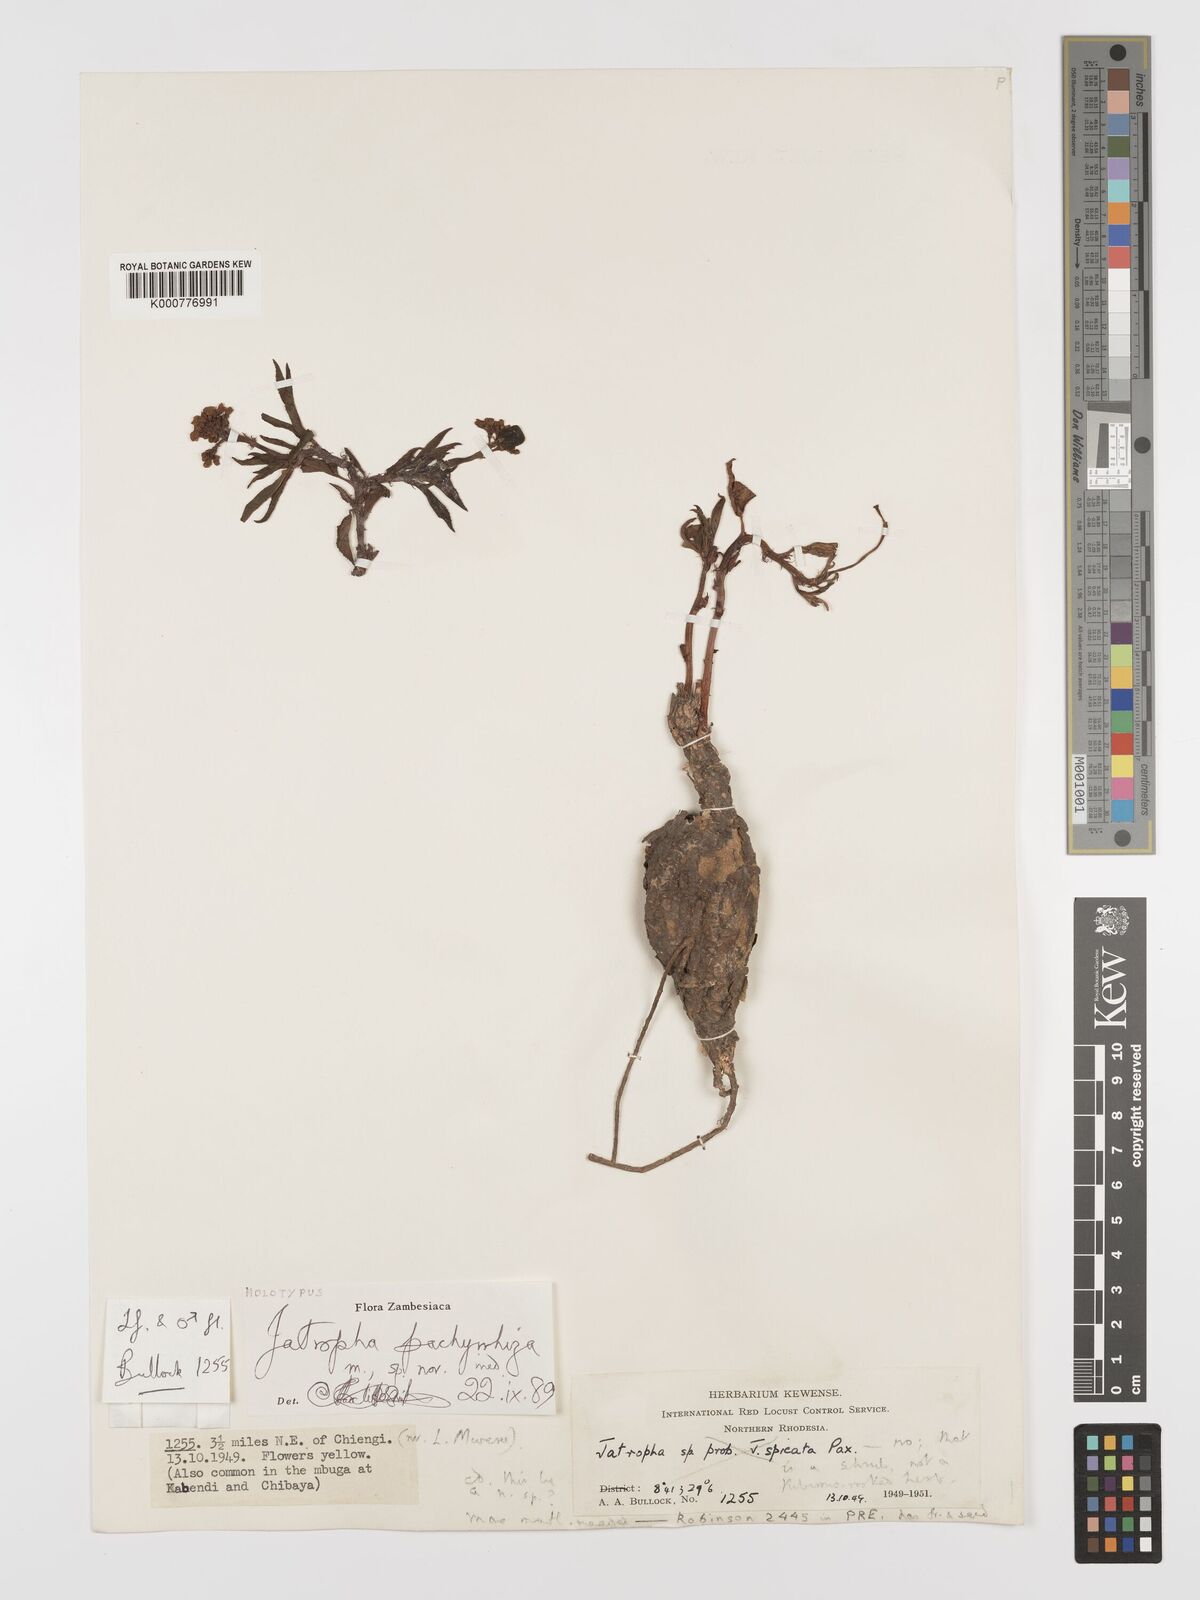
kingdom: Plantae
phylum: Tracheophyta
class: Magnoliopsida
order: Malpighiales
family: Euphorbiaceae
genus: Jatropha
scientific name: Jatropha pachyrrhiza
